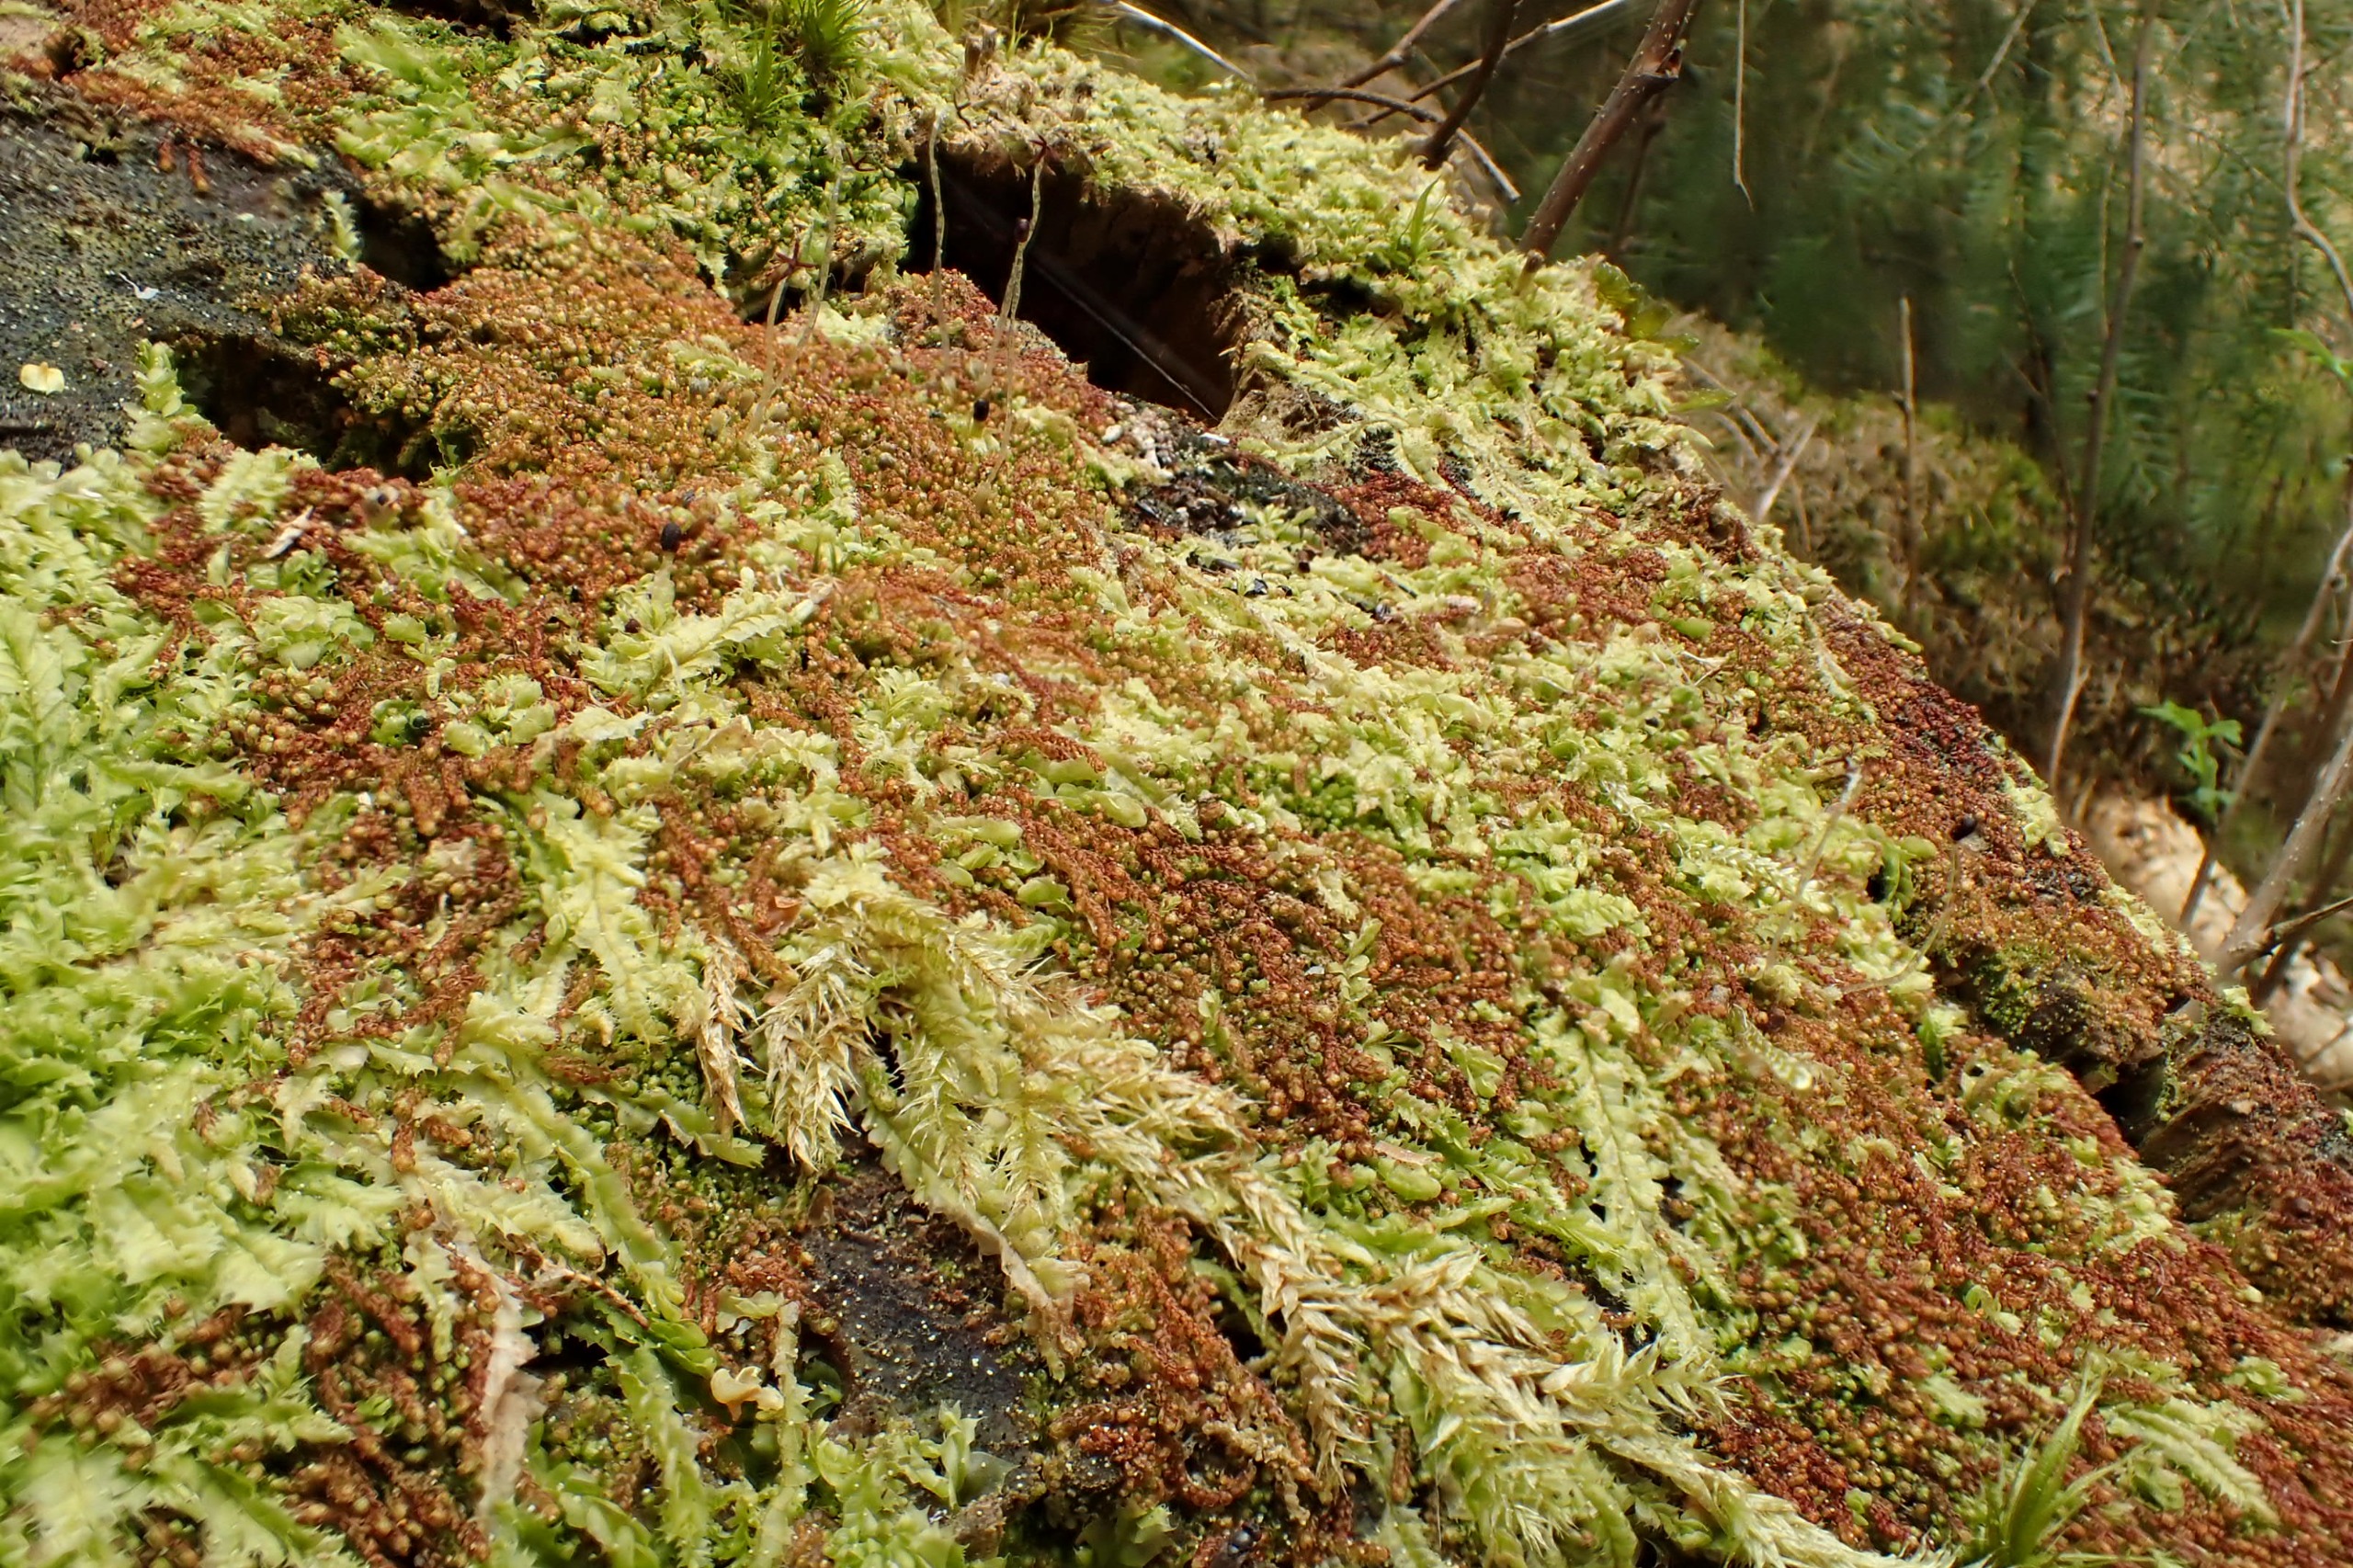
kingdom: Plantae
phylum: Marchantiophyta
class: Jungermanniopsida
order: Jungermanniales
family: Cephaloziaceae
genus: Nowellia
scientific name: Nowellia curvifolia
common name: Krumbladet stødmos
